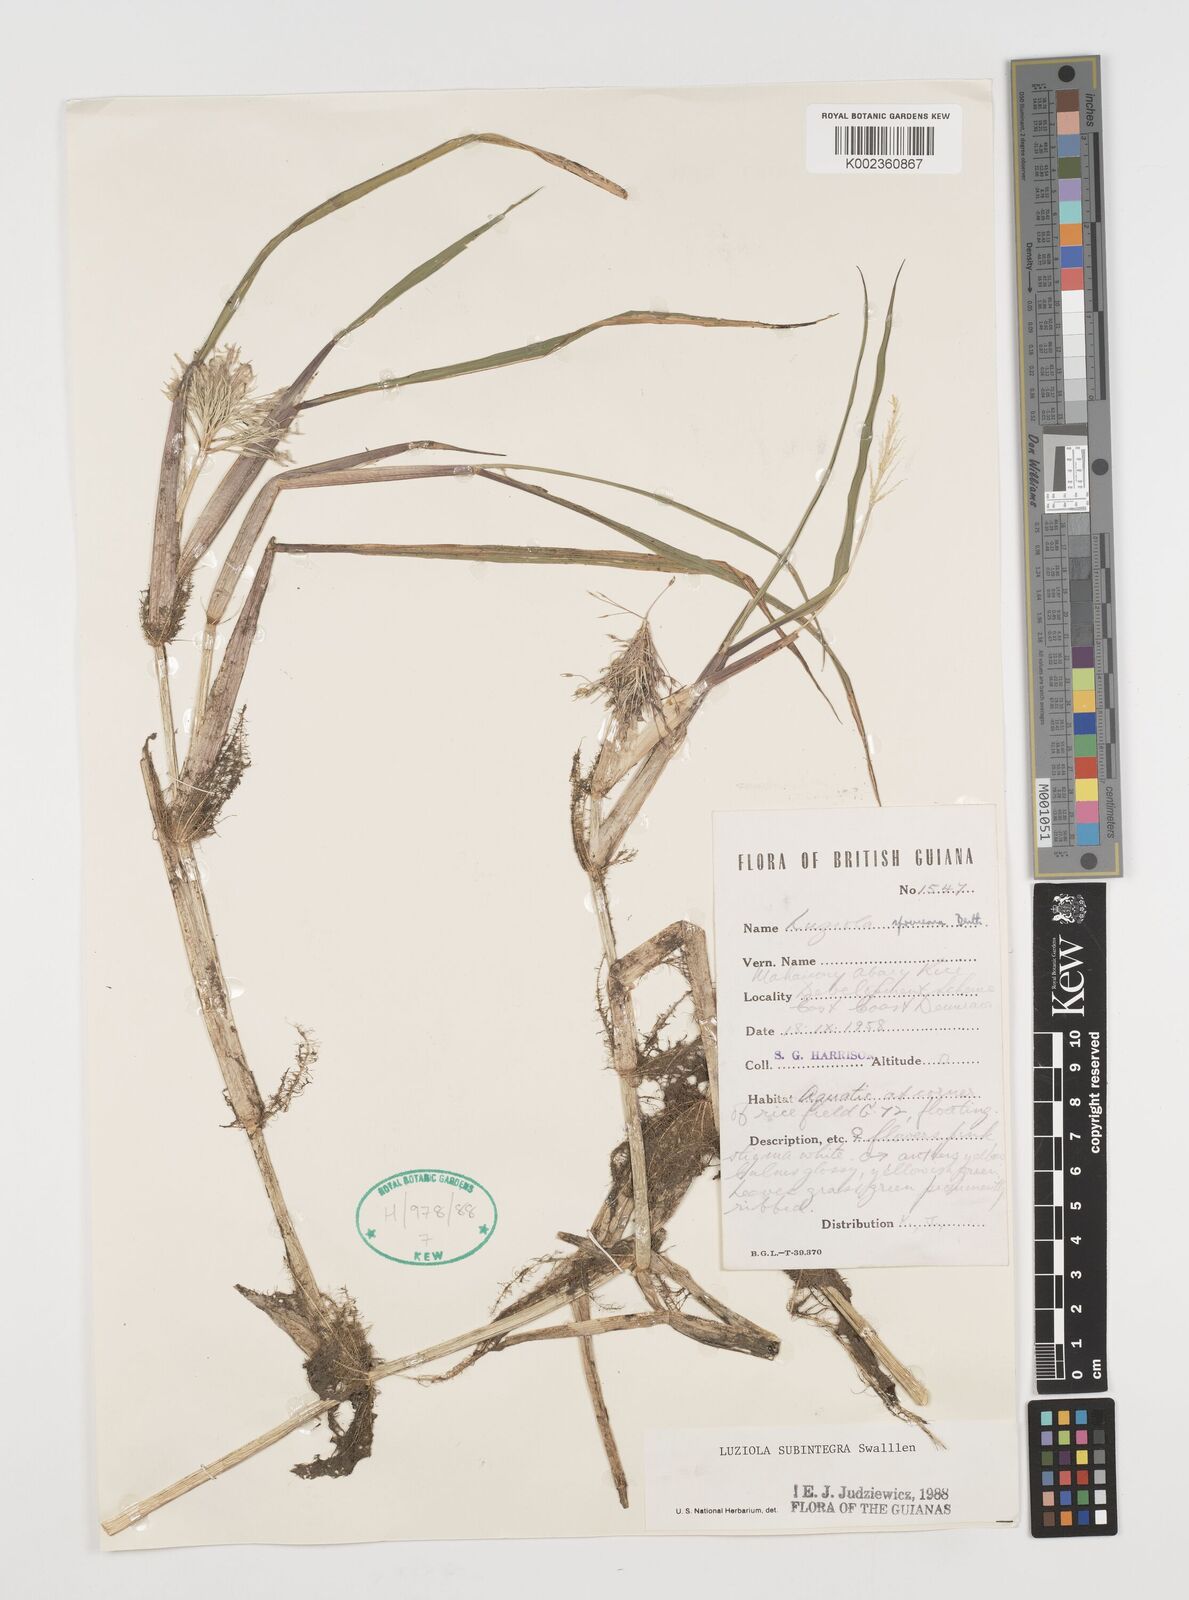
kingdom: Plantae
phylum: Tracheophyta
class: Liliopsida
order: Poales
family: Poaceae
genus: Luziola
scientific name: Luziola subintegra
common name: Large watergrass
